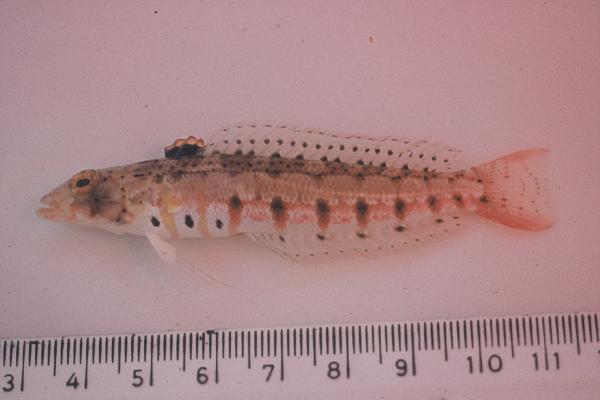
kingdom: Animalia
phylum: Chordata
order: Perciformes
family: Pinguipedidae
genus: Parapercis
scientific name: Parapercis punctulata
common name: Spotted sandperch
